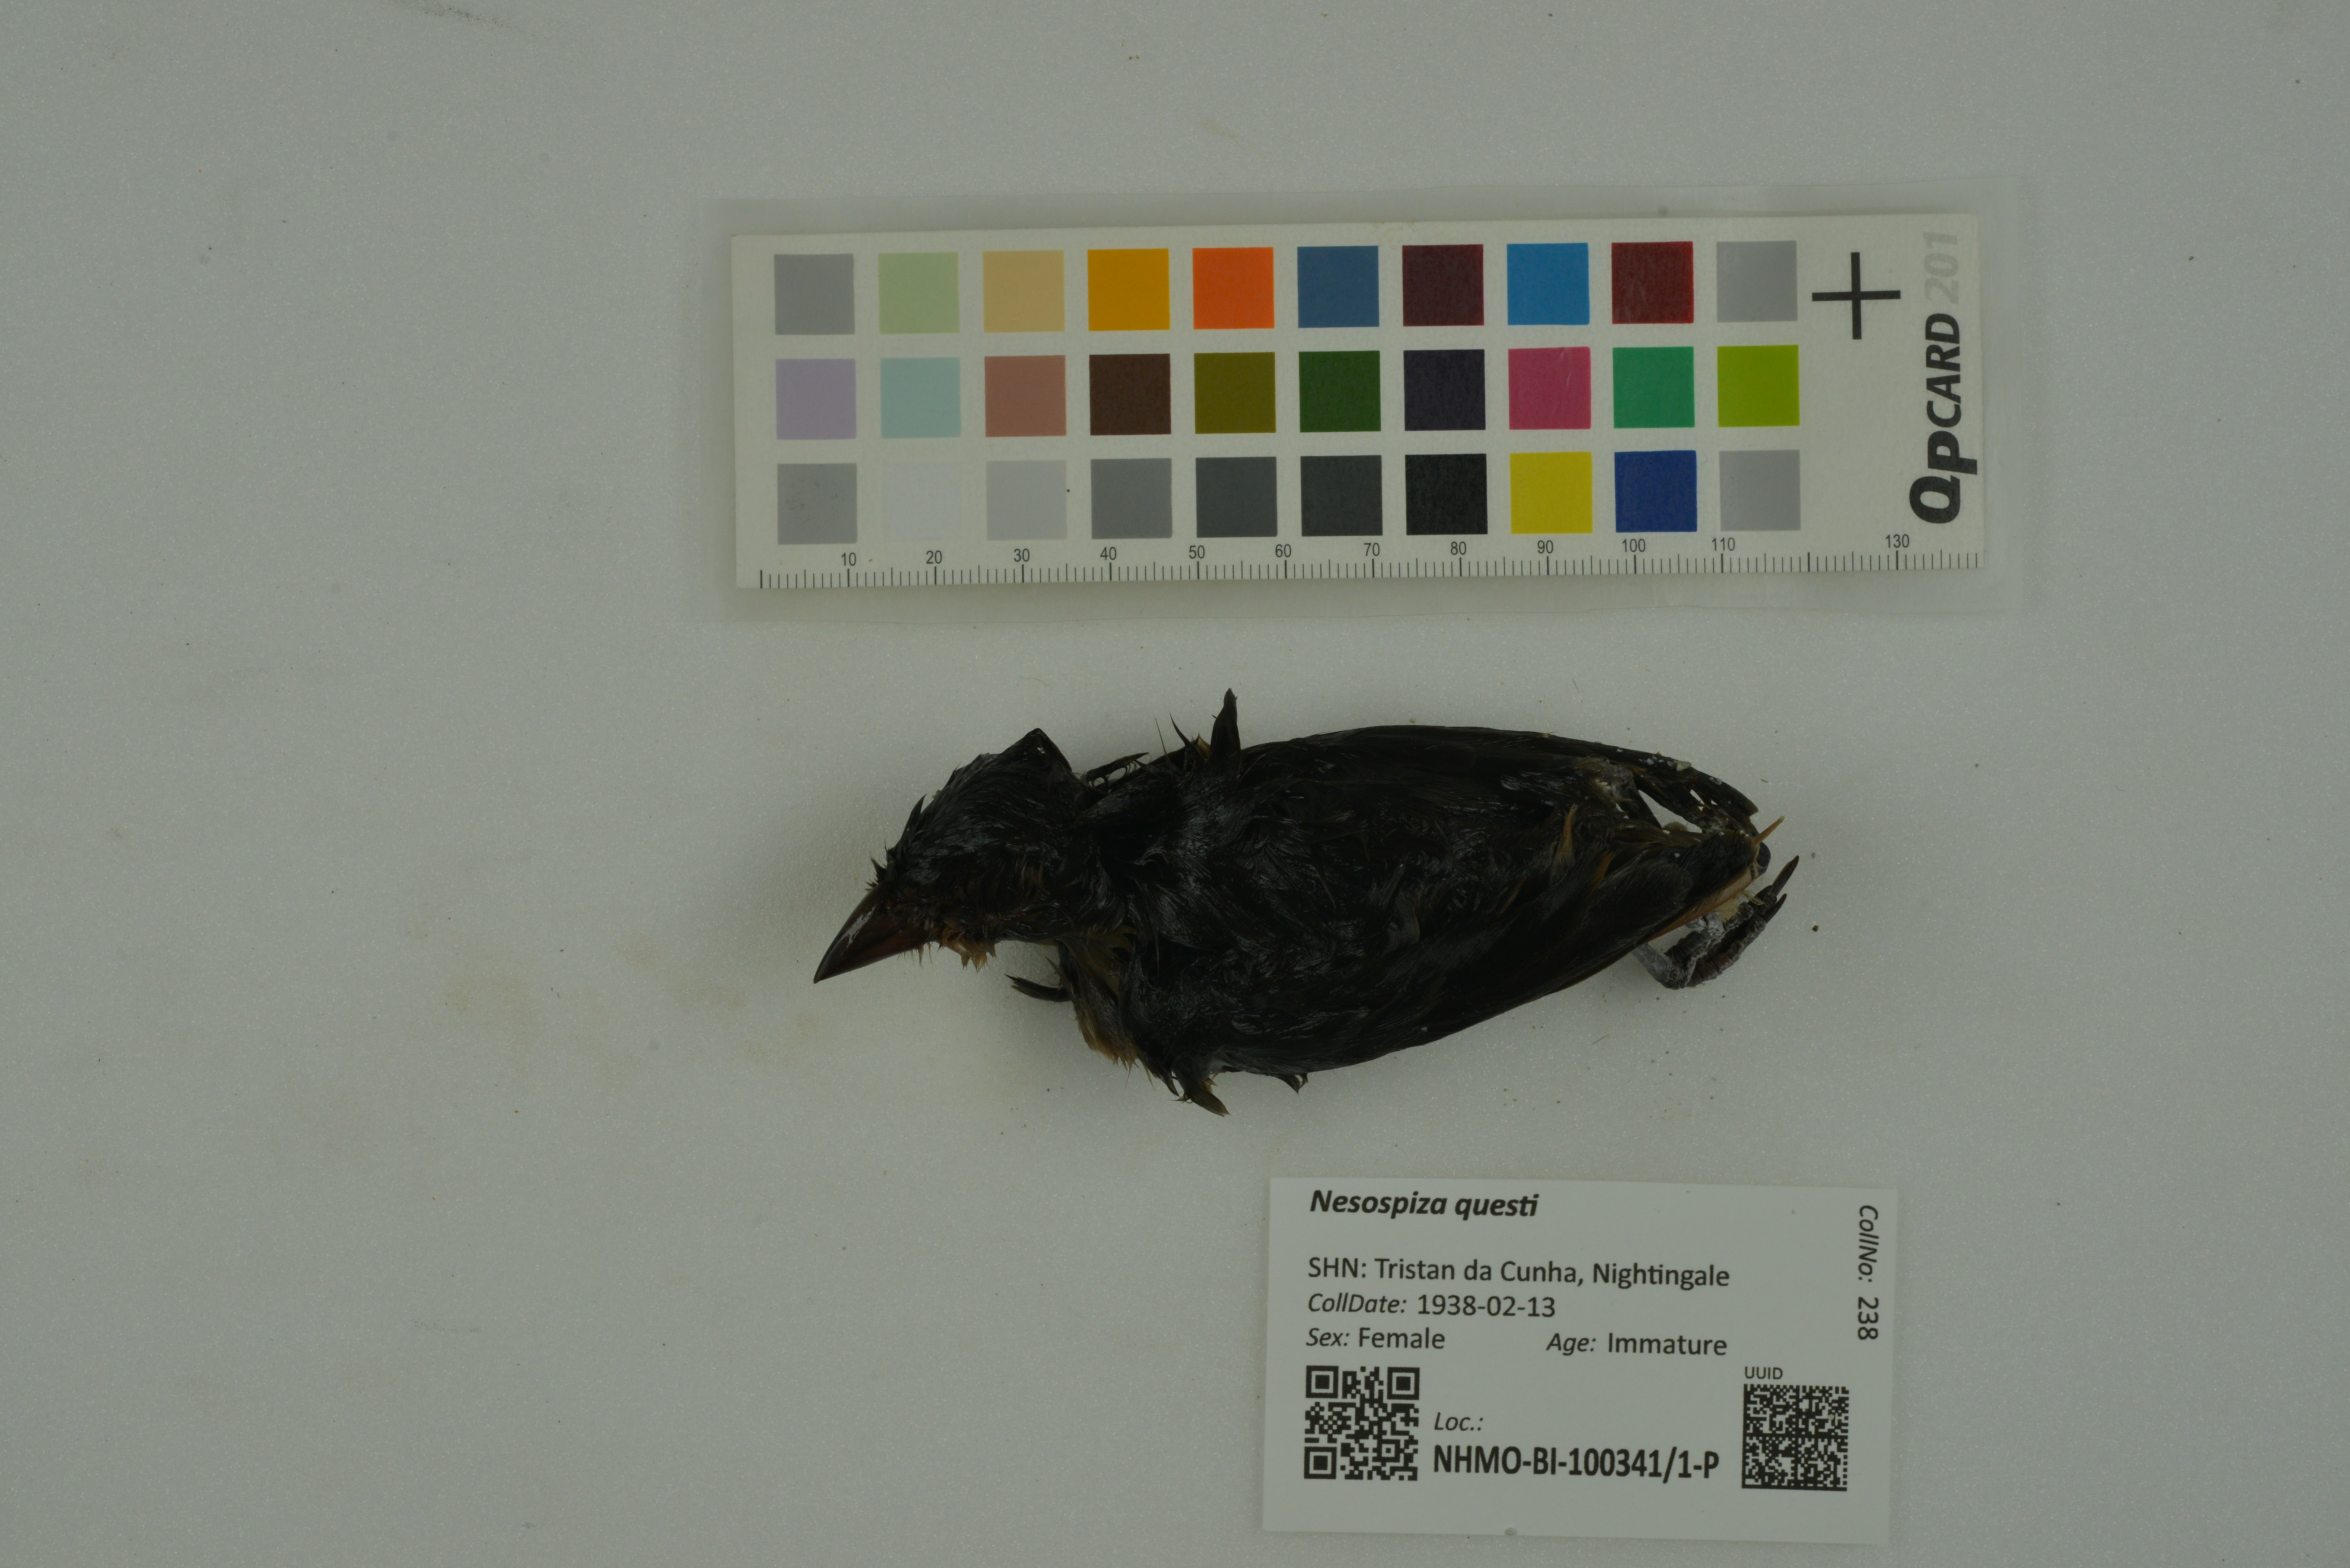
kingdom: Animalia
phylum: Chordata
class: Aves
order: Passeriformes
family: Thraupidae
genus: Nesospiza
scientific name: Nesospiza questi
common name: Nightingale island finch
